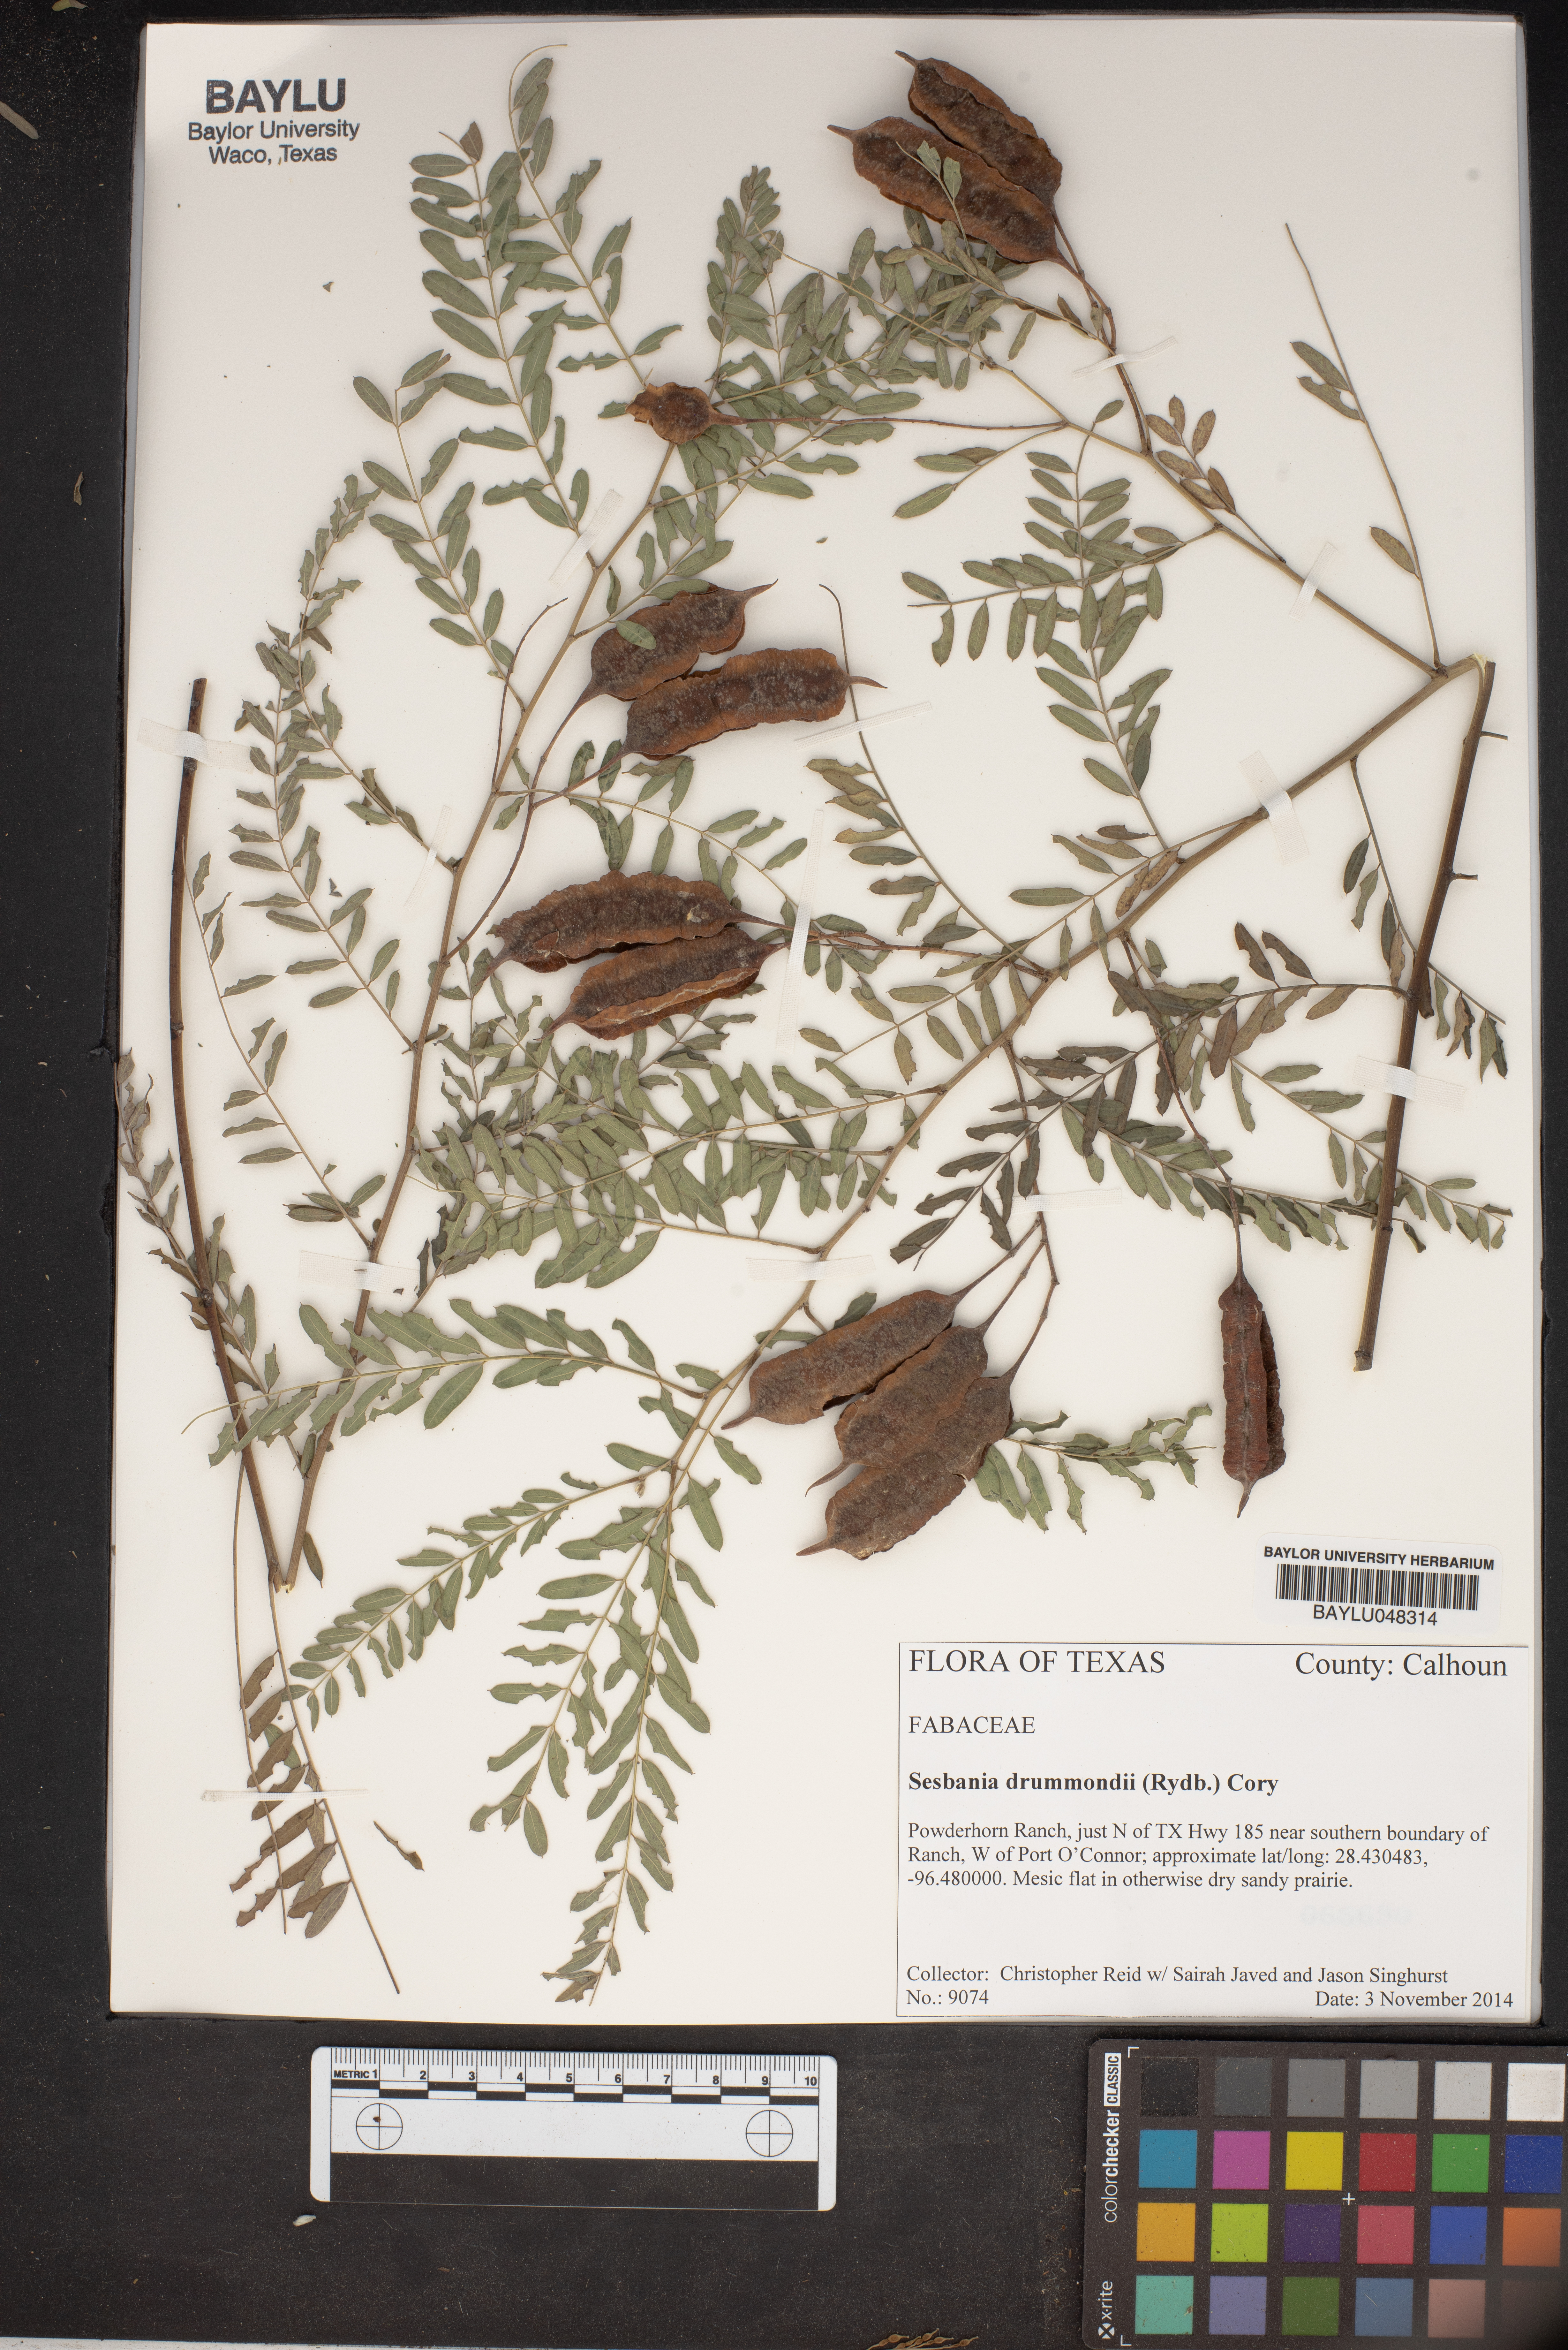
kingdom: Plantae
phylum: Tracheophyta
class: Magnoliopsida
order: Fabales
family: Fabaceae
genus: Sesbania
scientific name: Sesbania drummondii
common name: Poison-bean
